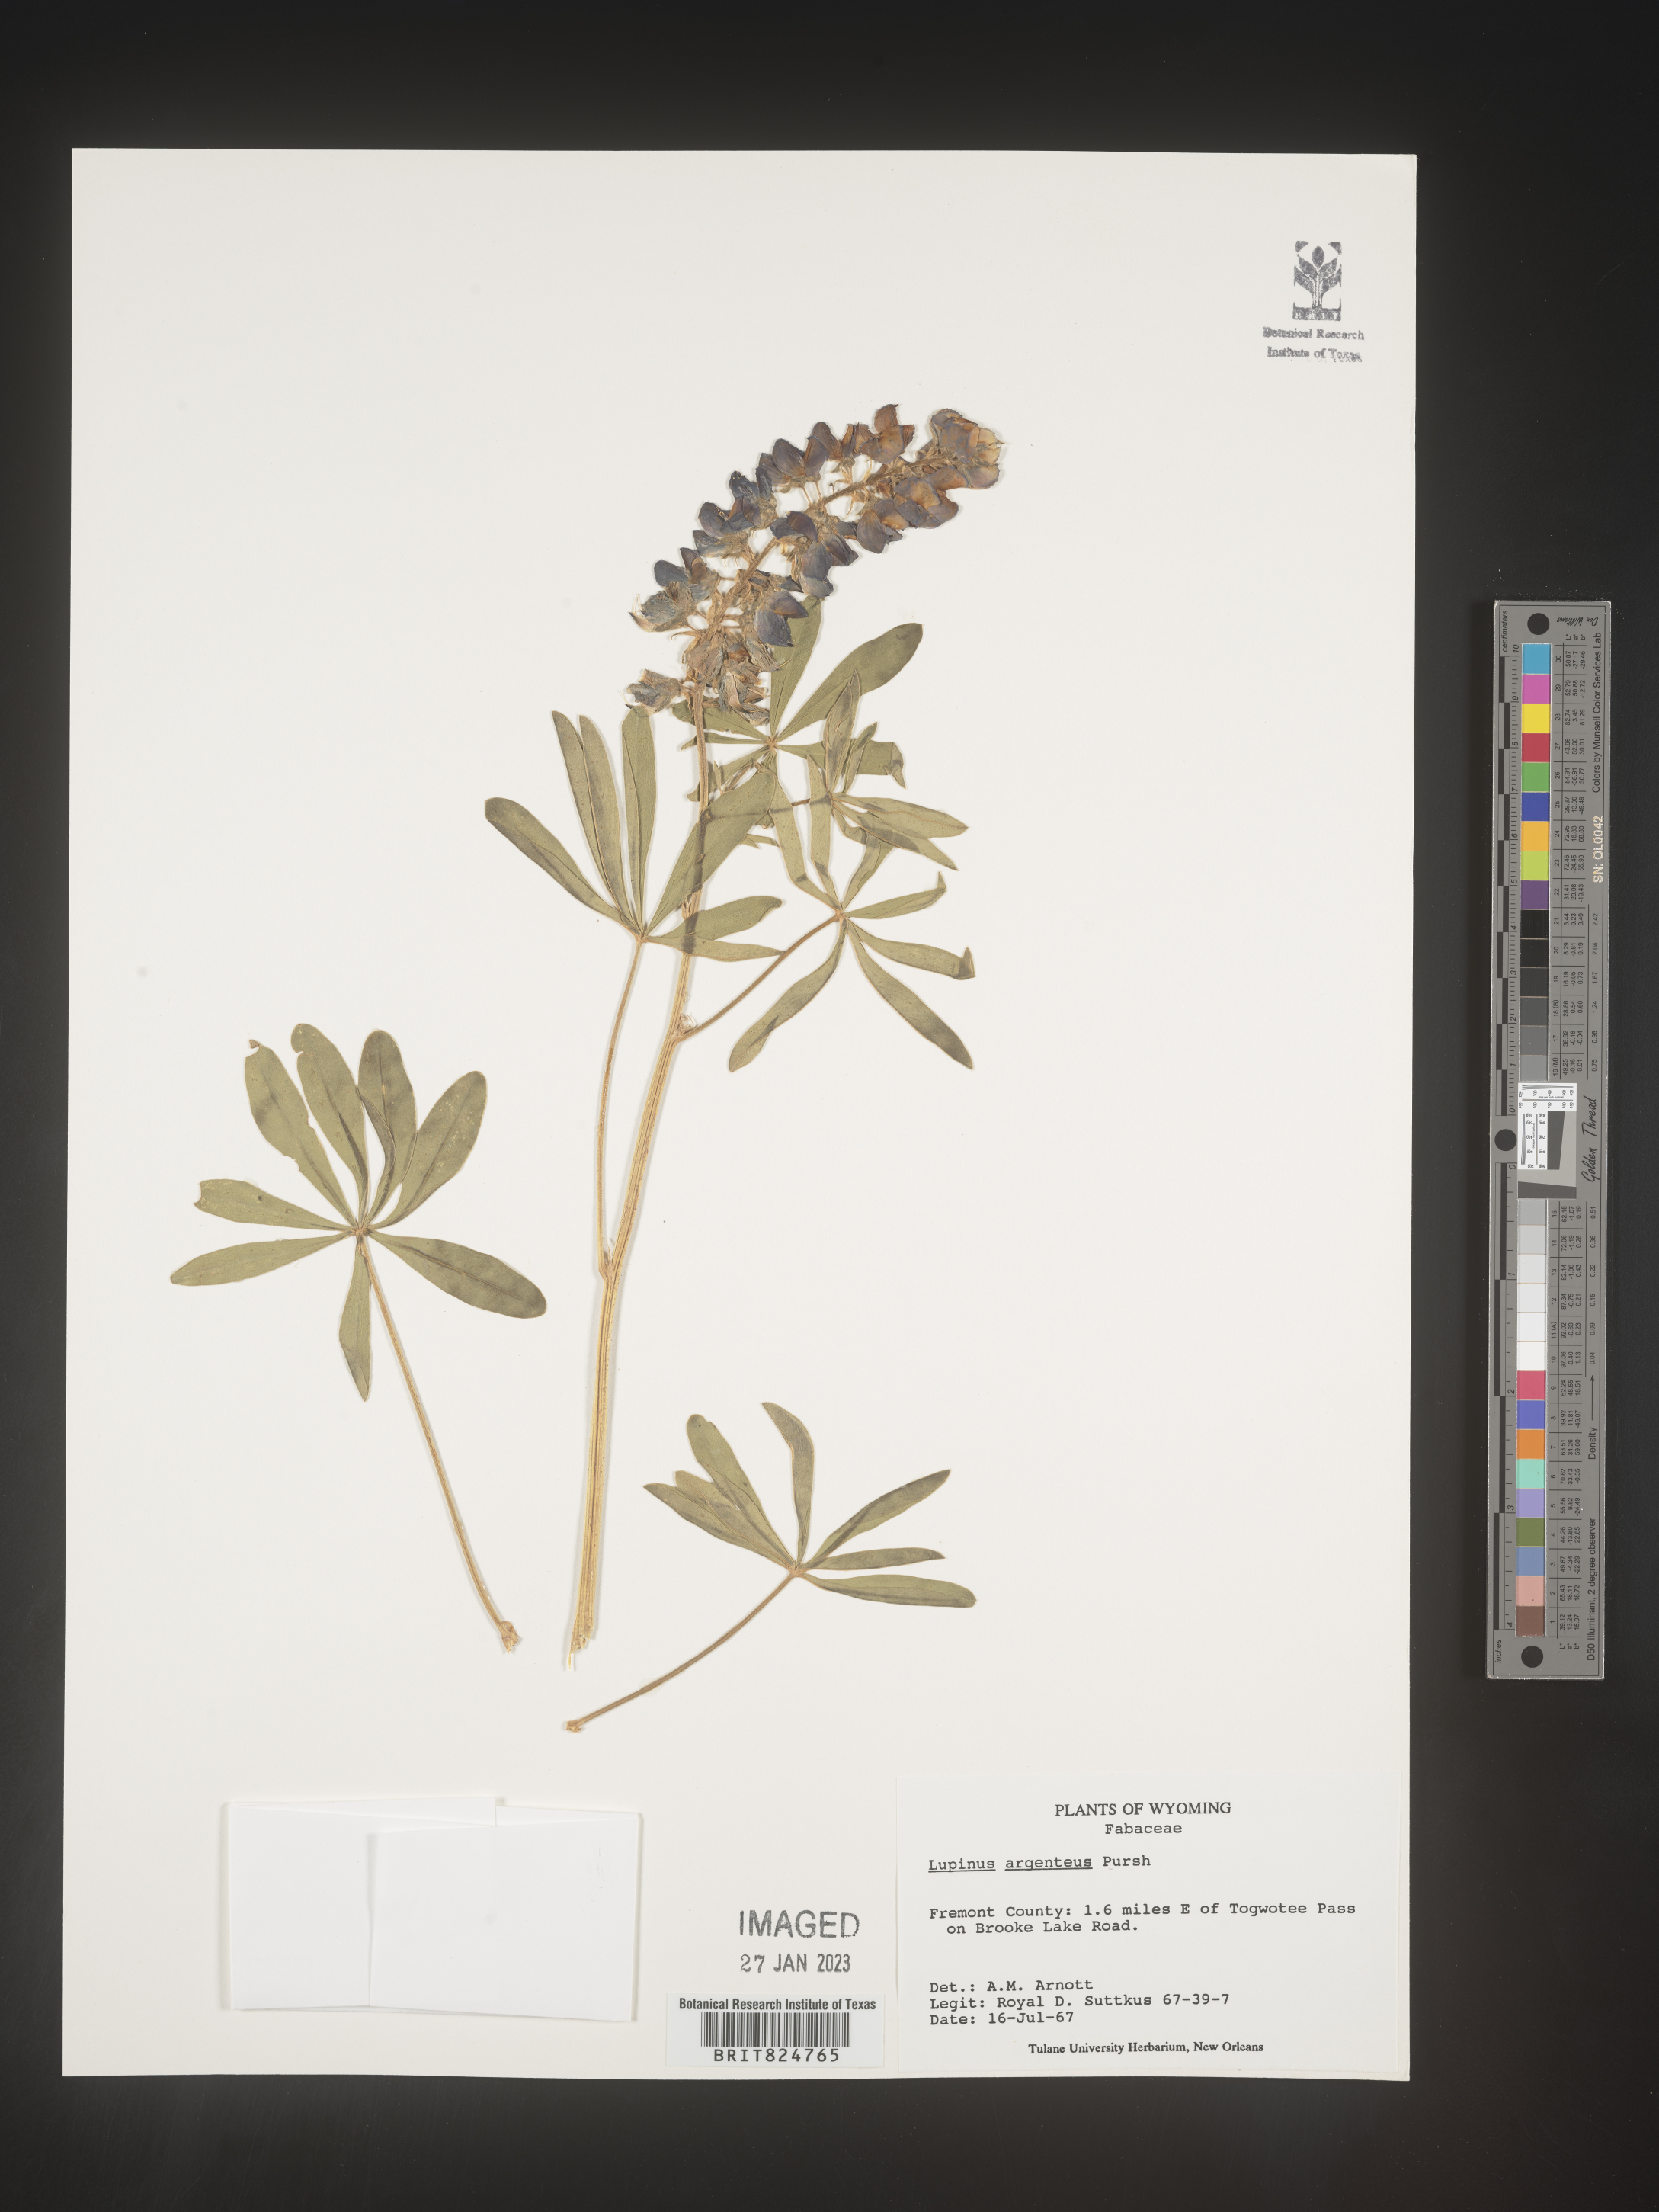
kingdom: Plantae
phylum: Tracheophyta
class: Magnoliopsida
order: Fabales
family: Fabaceae
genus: Lupinus
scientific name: Lupinus argenteus
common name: Silvery lupine
